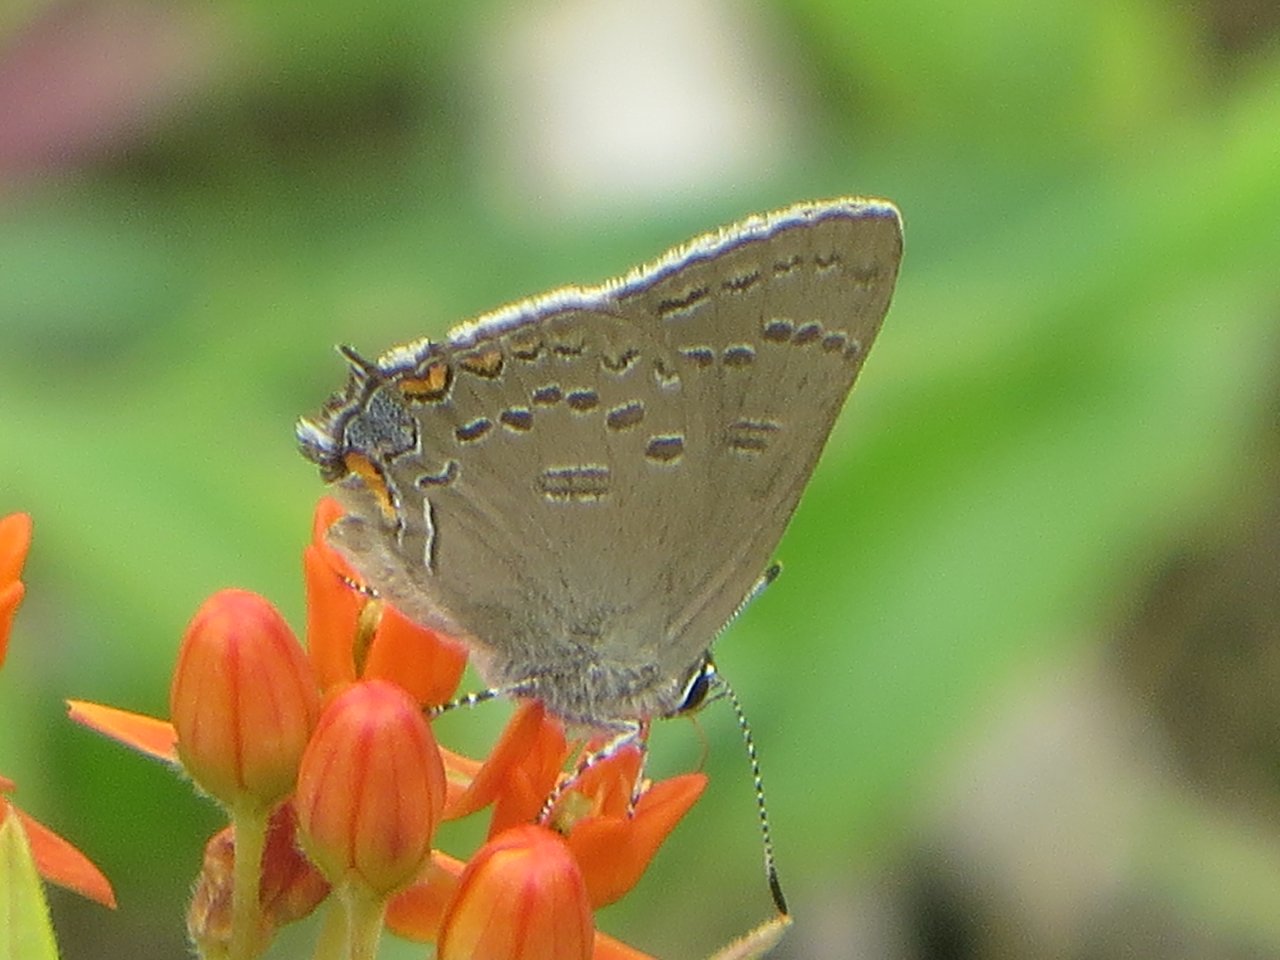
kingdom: Animalia
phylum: Arthropoda
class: Insecta
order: Lepidoptera
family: Lycaenidae
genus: Satyrium
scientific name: Satyrium edwardsii
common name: Edwards' Hairstreak
